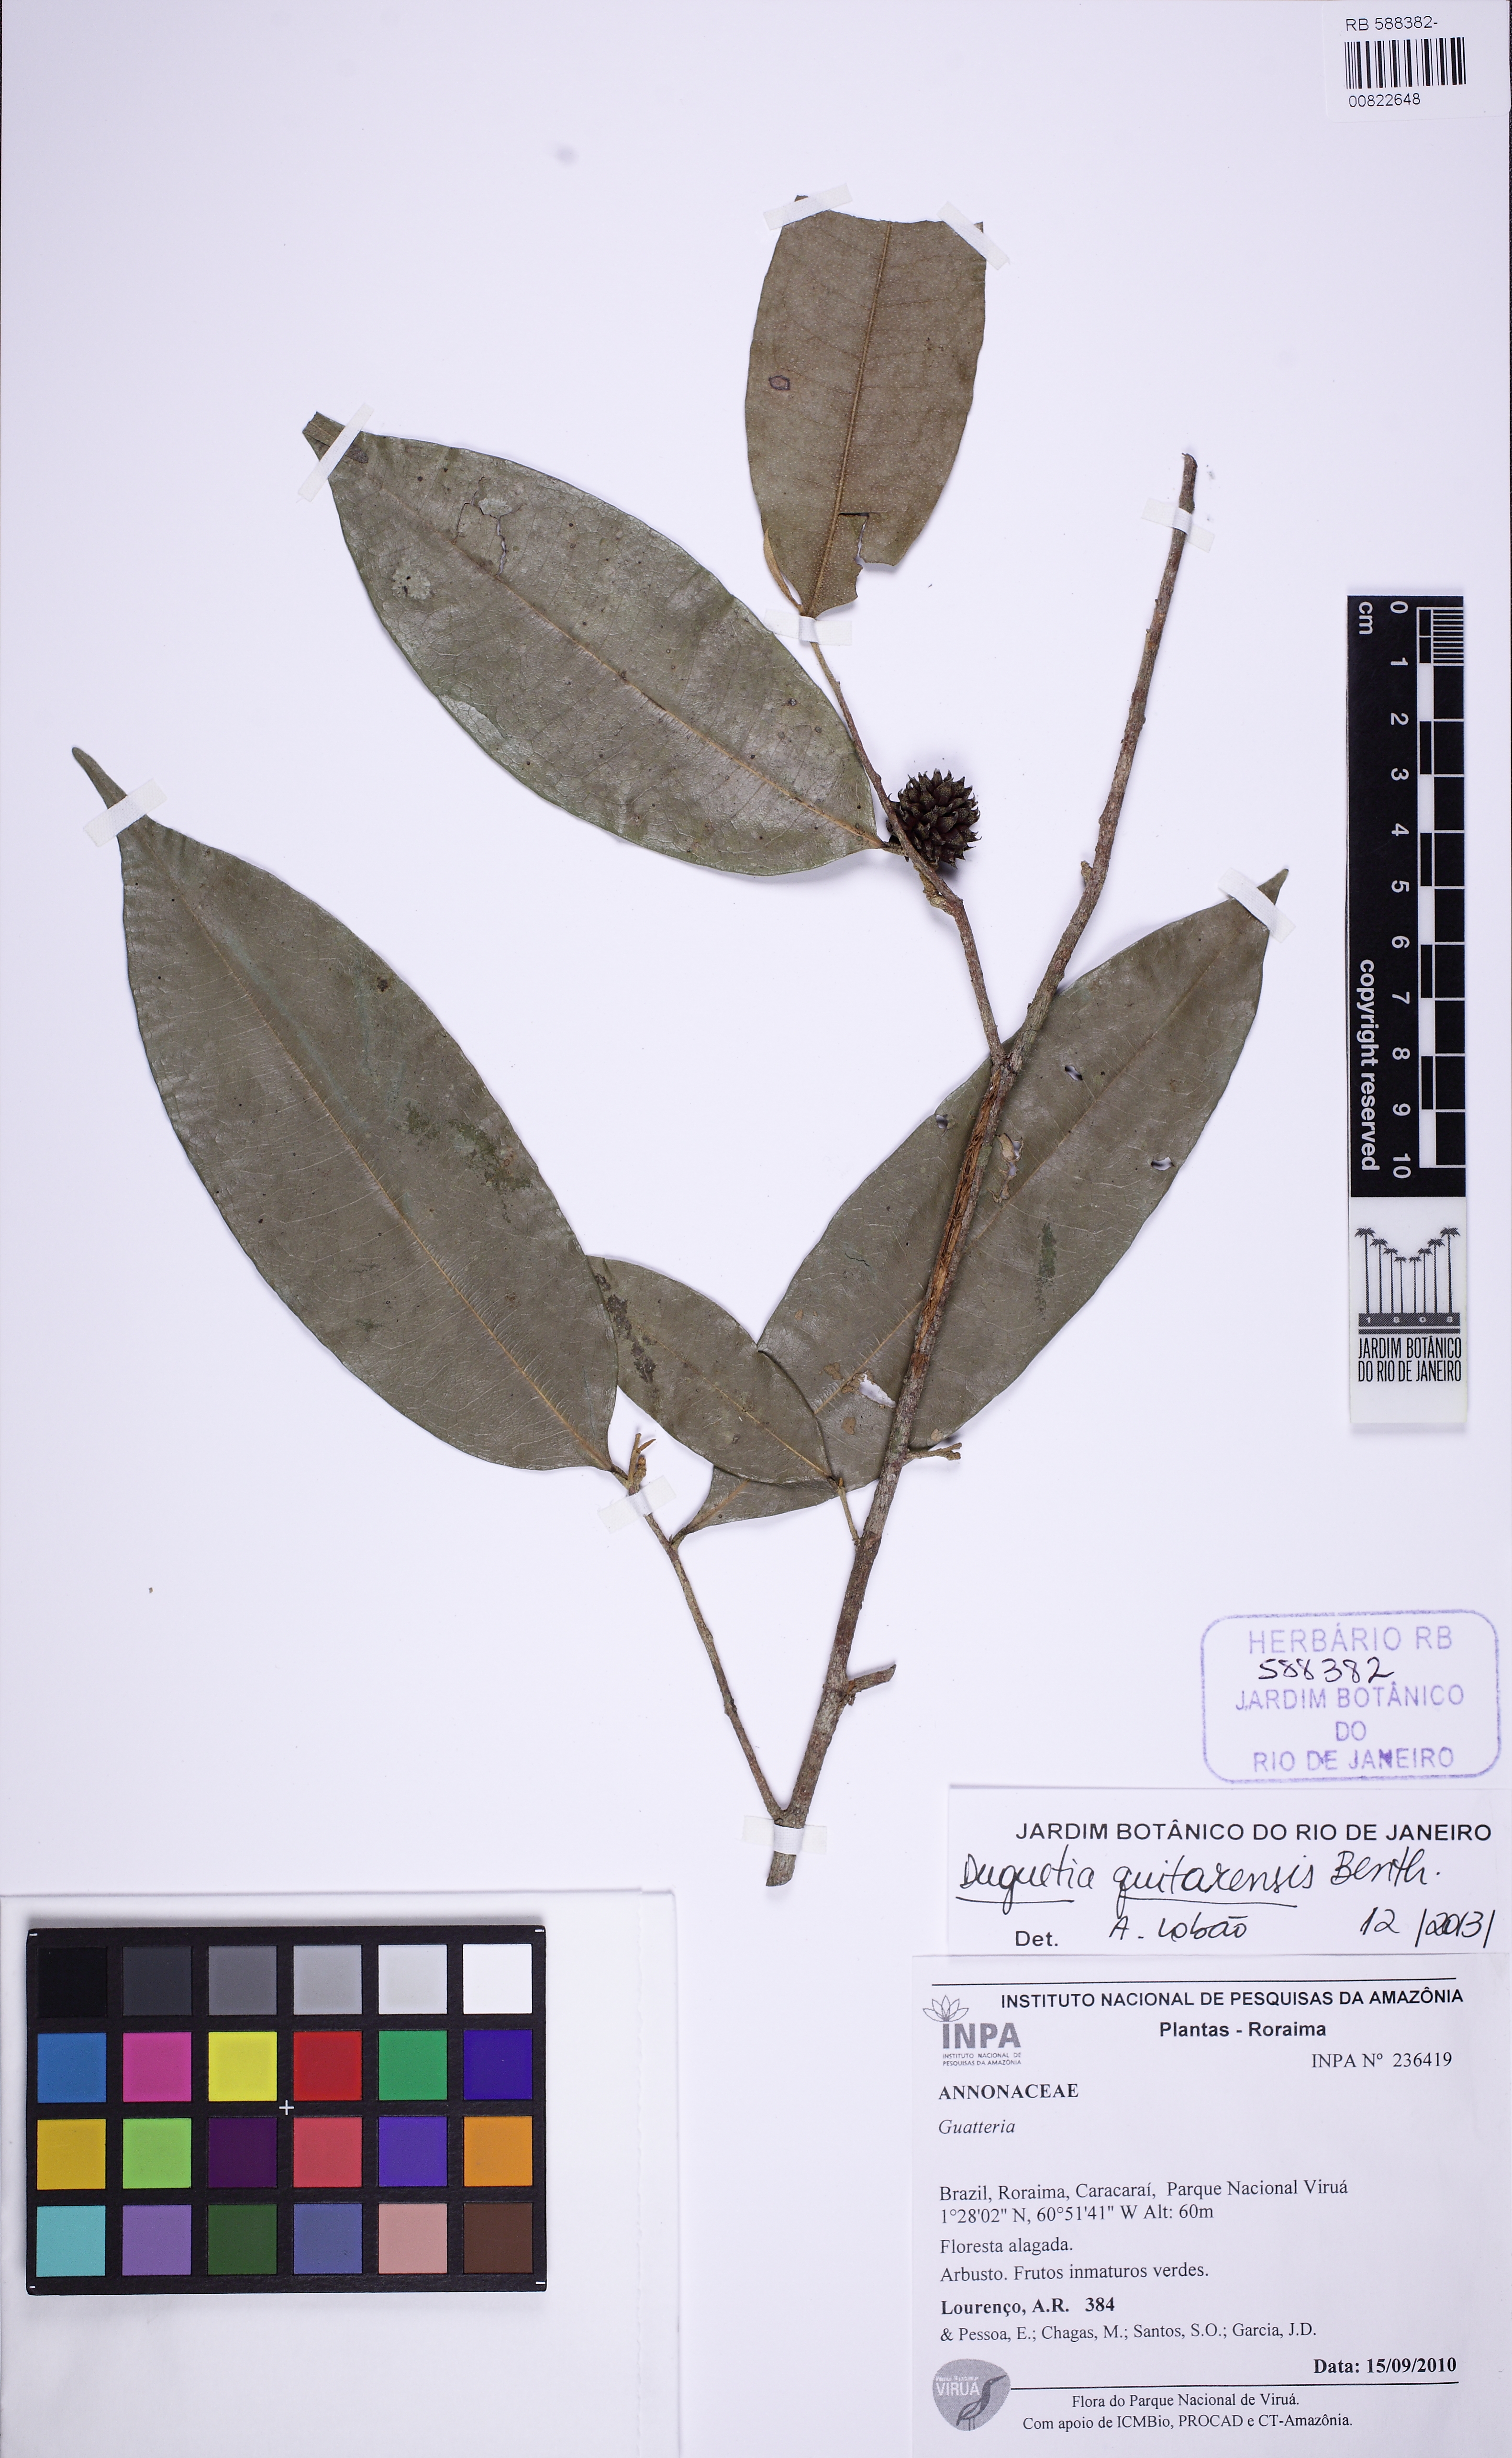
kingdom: Plantae
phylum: Tracheophyta
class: Magnoliopsida
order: Magnoliales
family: Annonaceae
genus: Duguetia
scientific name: Duguetia quitarensis
